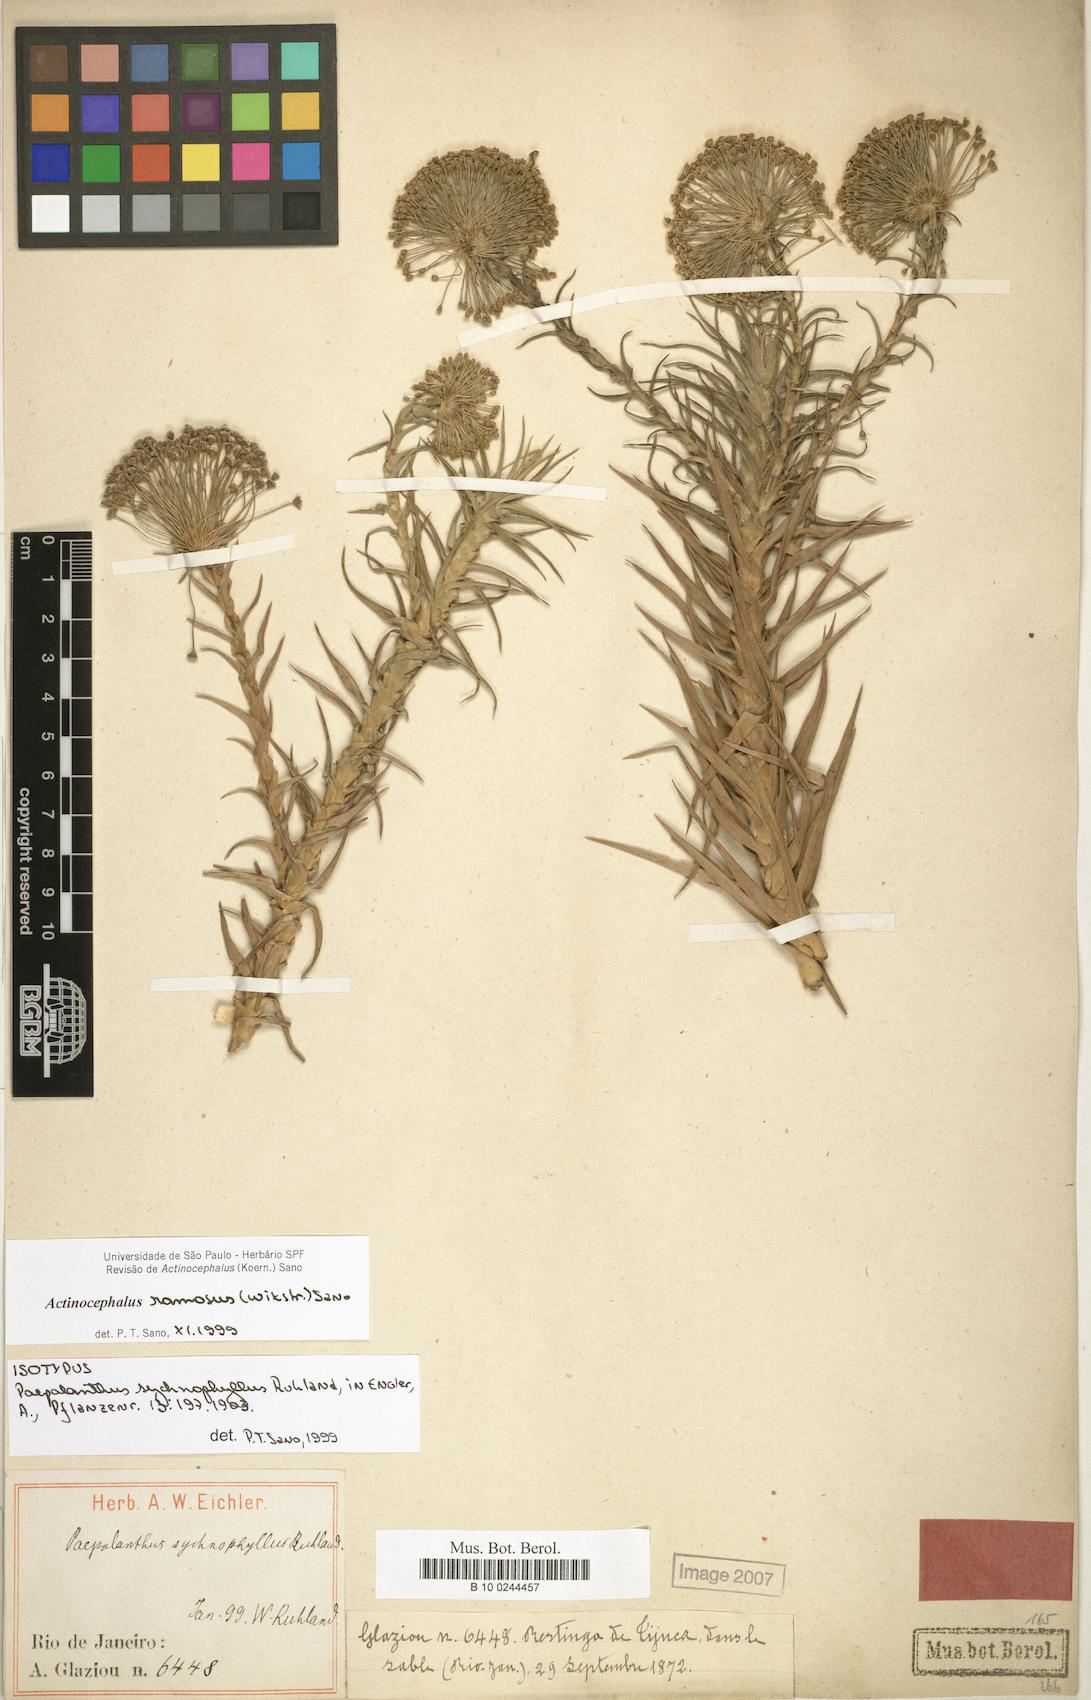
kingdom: Plantae
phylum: Tracheophyta
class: Liliopsida
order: Poales
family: Eriocaulaceae
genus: Paepalanthus
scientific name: Paepalanthus ramosus
